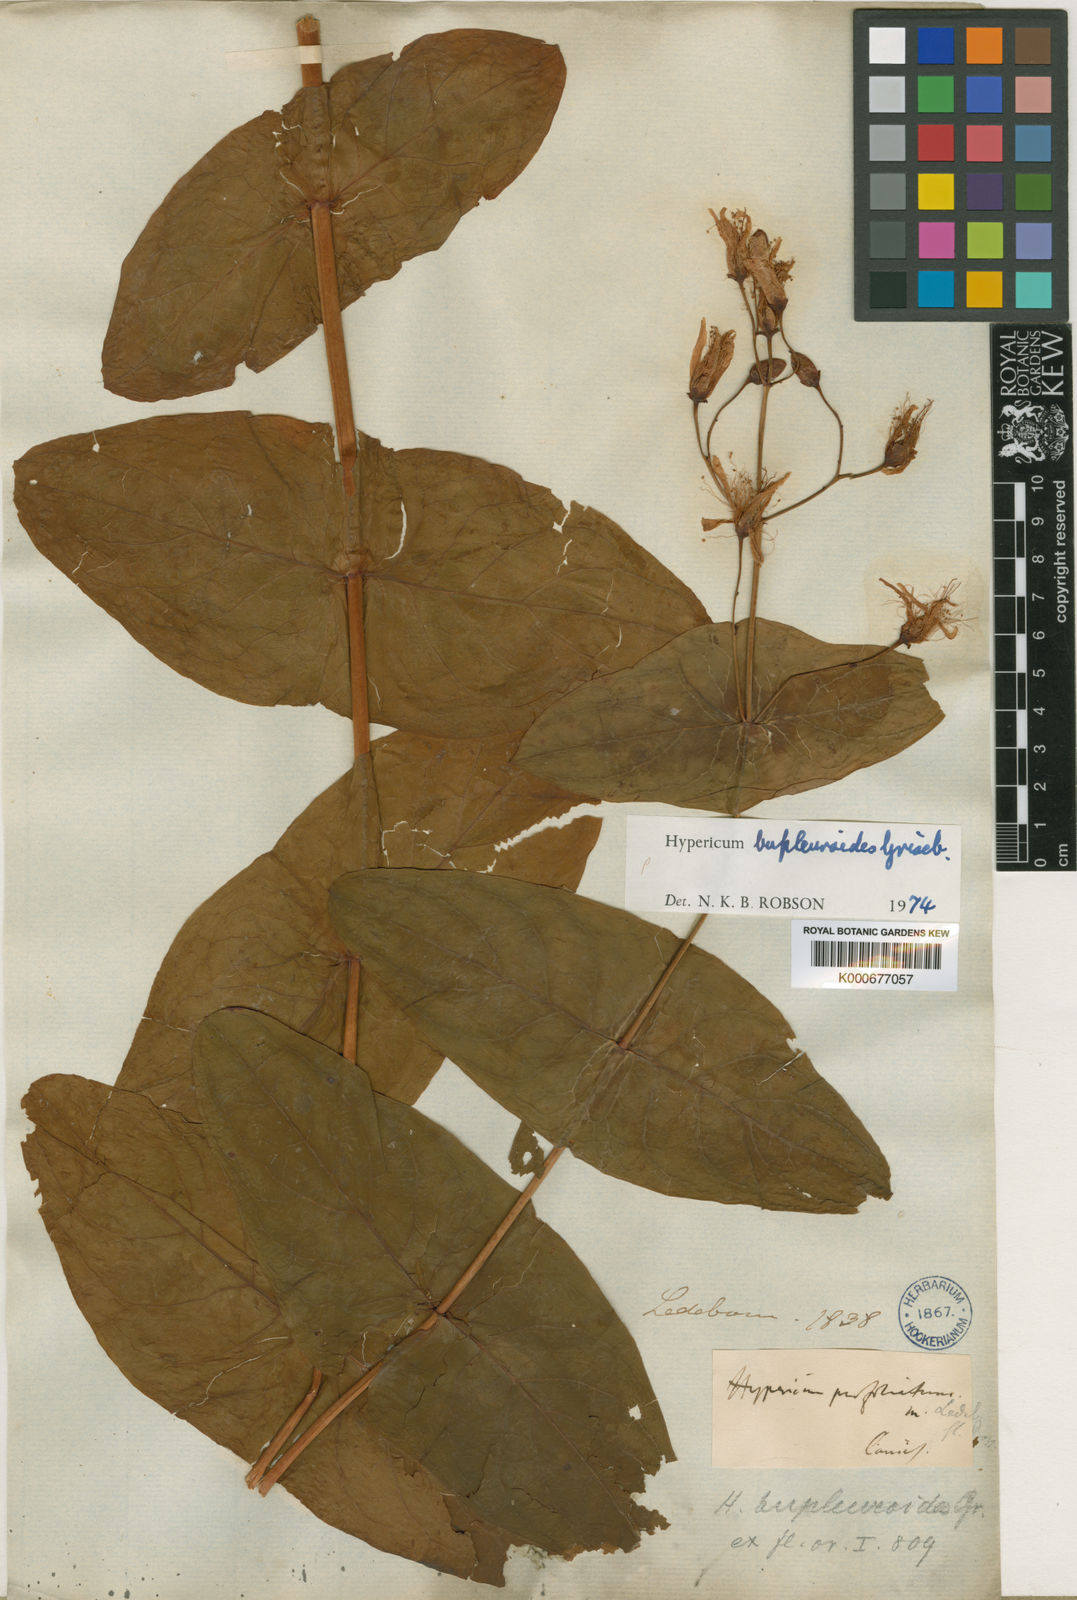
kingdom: Plantae
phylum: Tracheophyta
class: Magnoliopsida
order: Malpighiales
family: Hypericaceae
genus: Hypericum
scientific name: Hypericum bupleuroides
